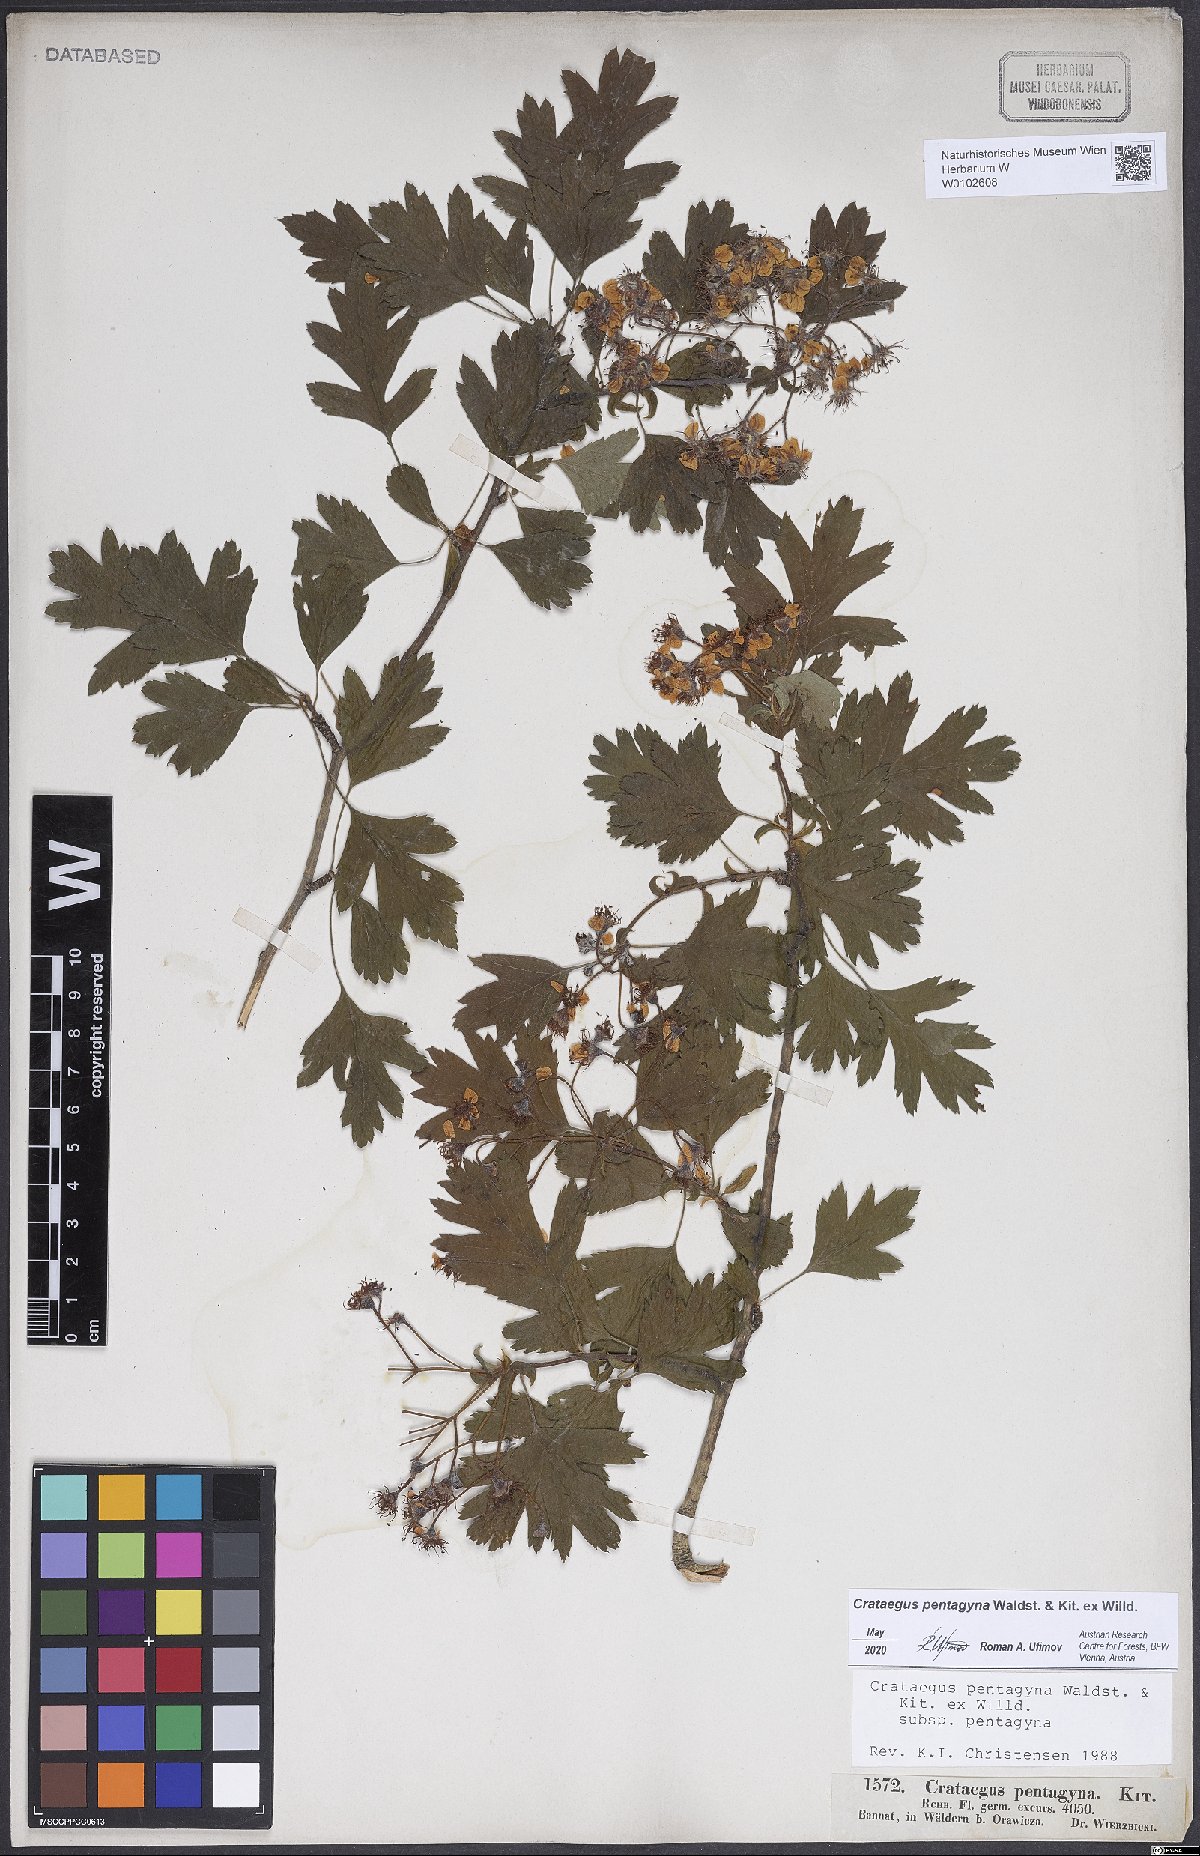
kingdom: Plantae
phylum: Tracheophyta
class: Magnoliopsida
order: Rosales
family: Rosaceae
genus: Crataegus
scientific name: Crataegus pentagyna
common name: Small-flowered black hawthorn
